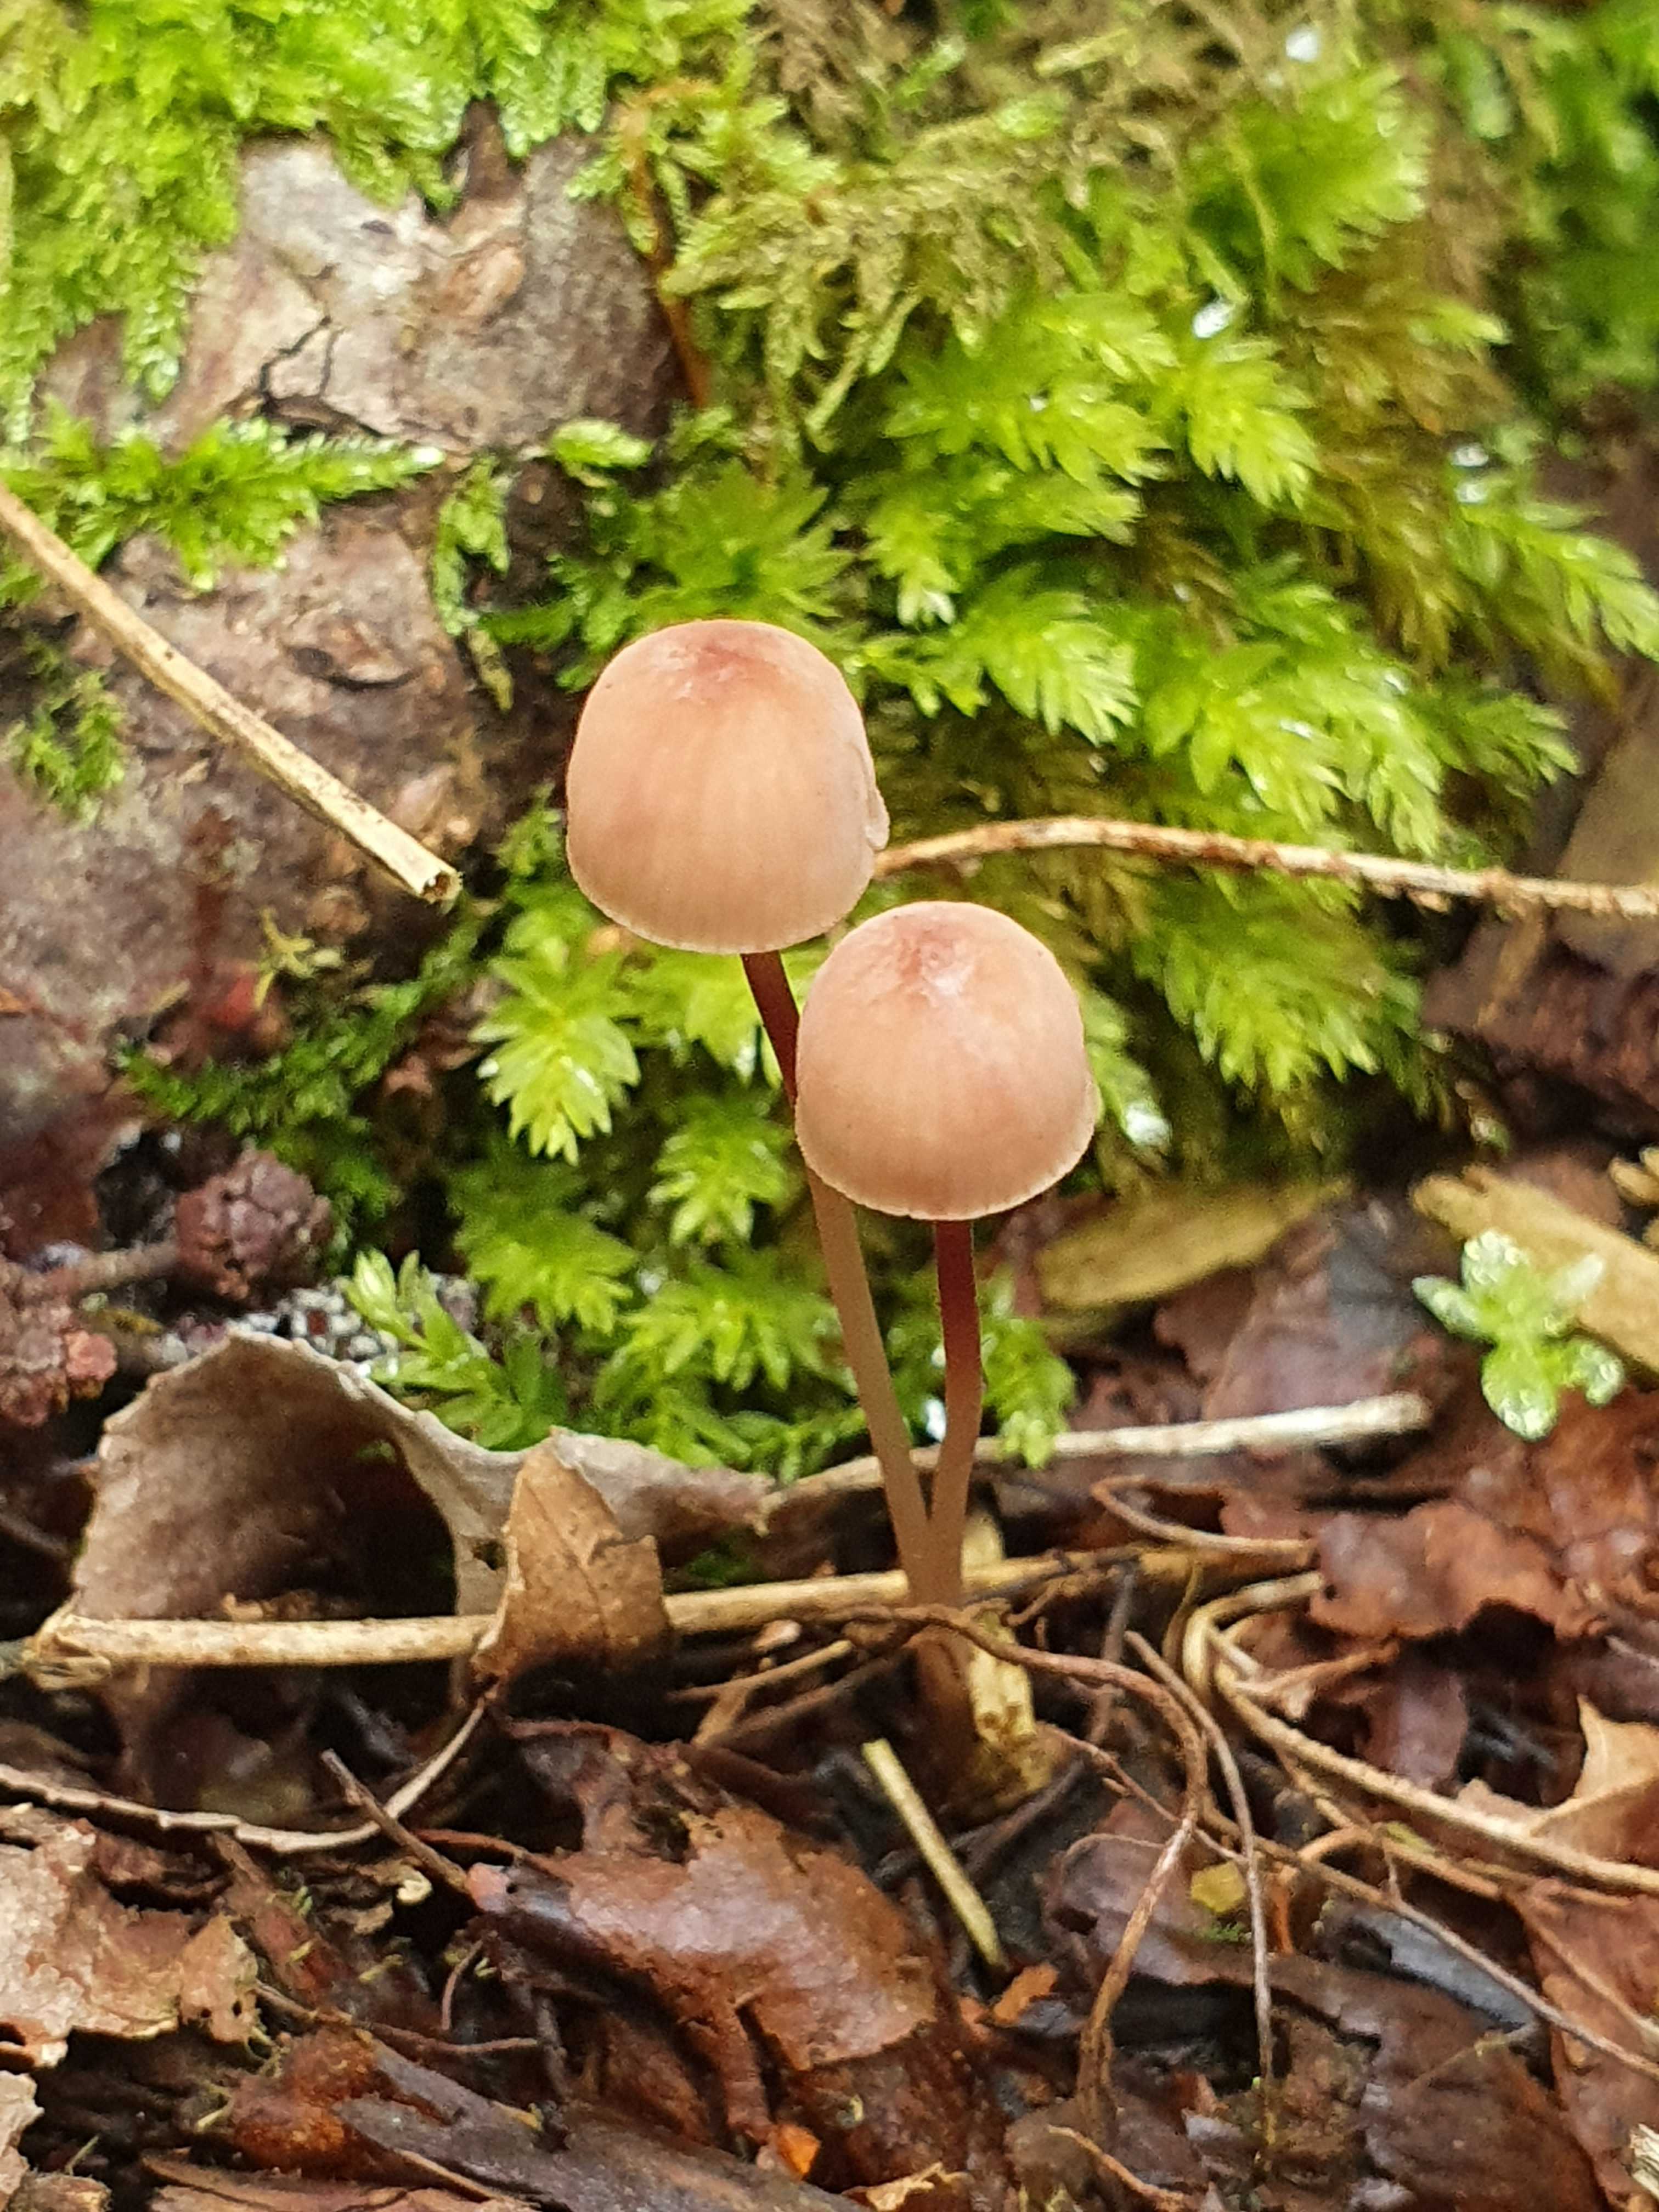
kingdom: Fungi
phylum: Basidiomycota
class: Agaricomycetes
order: Agaricales
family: Mycenaceae
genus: Mycena
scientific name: Mycena sanguinolenta
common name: rødmælket huesvamp
